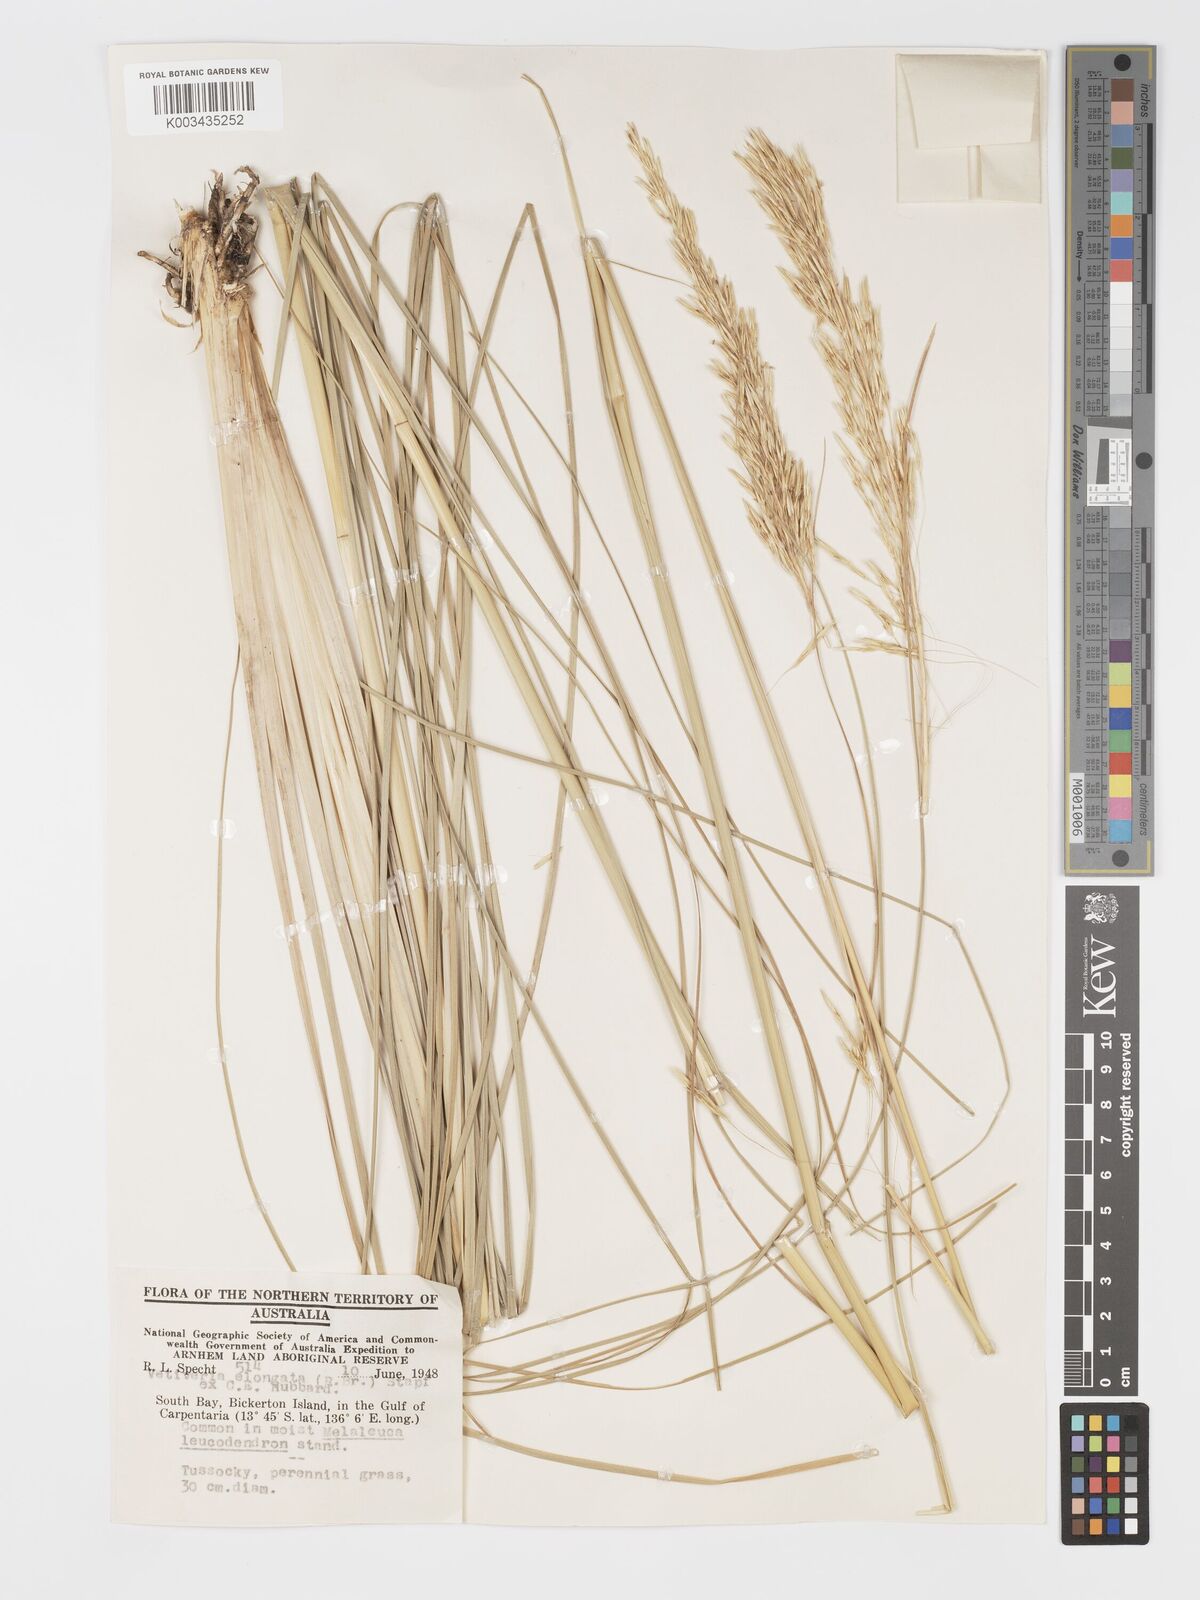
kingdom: Plantae
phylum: Tracheophyta
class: Liliopsida
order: Poales
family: Poaceae
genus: Chrysopogon
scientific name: Chrysopogon elongatus
